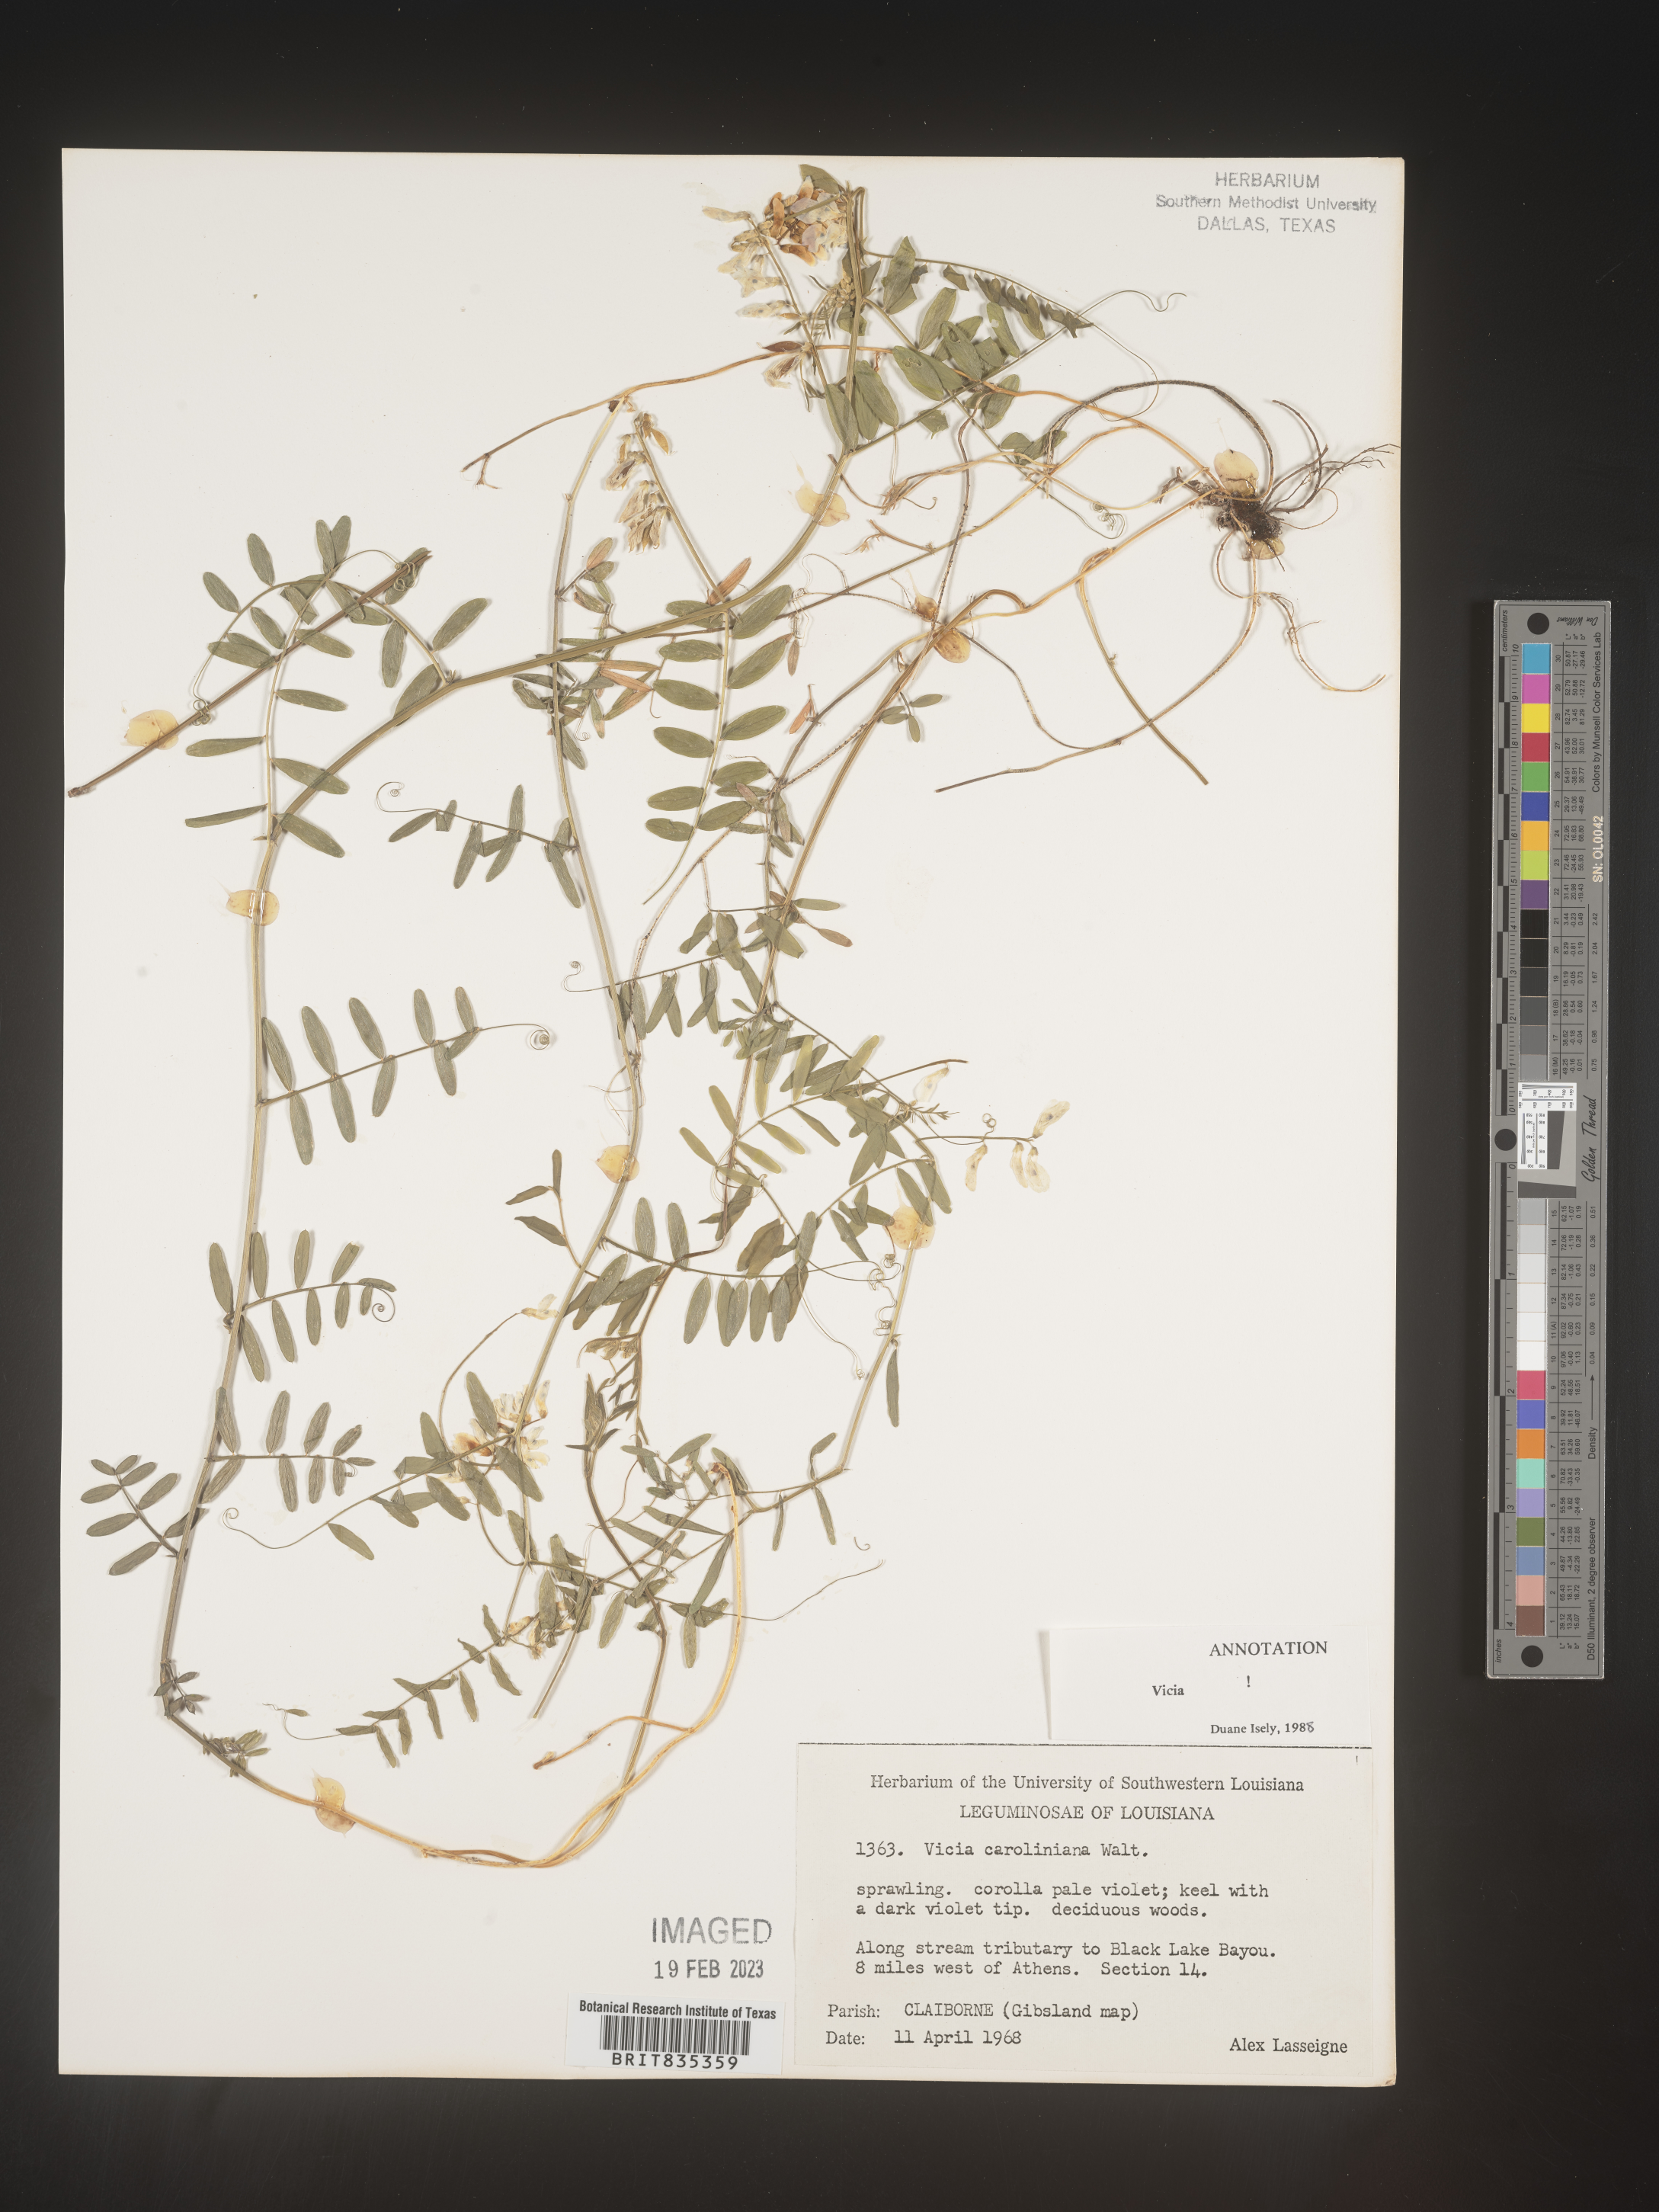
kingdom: Plantae
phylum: Tracheophyta
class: Magnoliopsida
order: Fabales
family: Fabaceae
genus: Vicia
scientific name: Vicia caroliniana
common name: Carolina vetch
